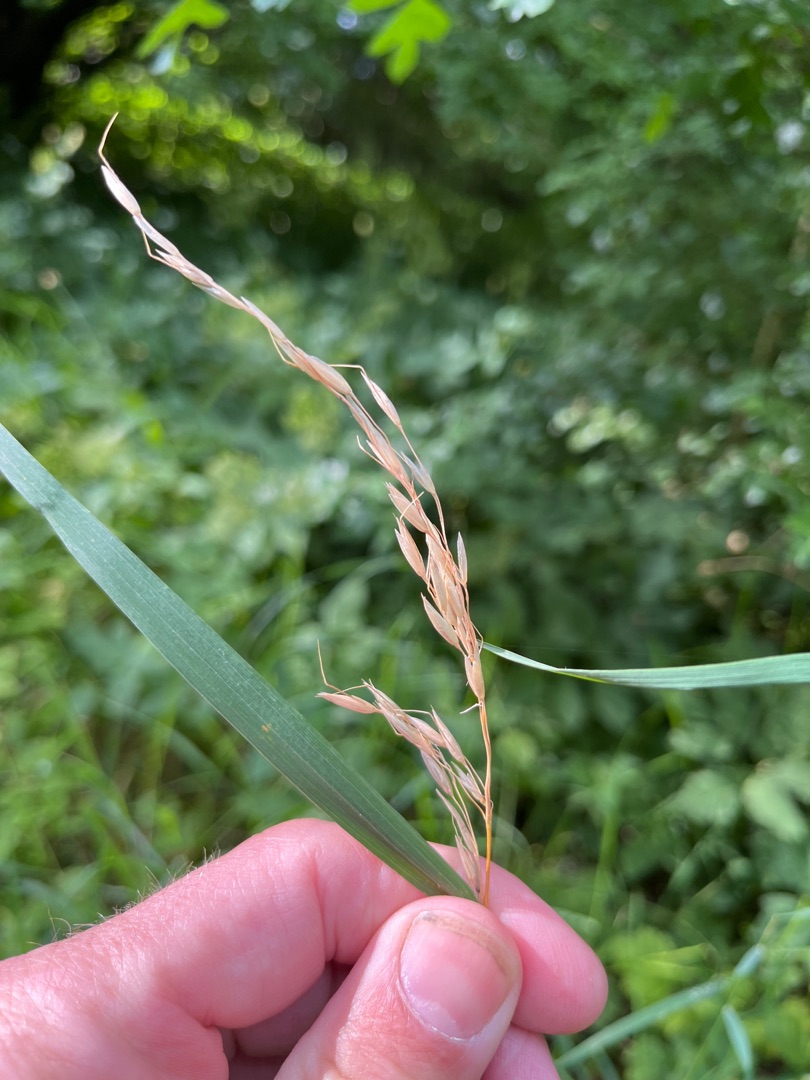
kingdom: Plantae
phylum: Tracheophyta
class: Liliopsida
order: Poales
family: Poaceae
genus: Arrhenatherum
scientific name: Arrhenatherum elatius
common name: Draphavre
